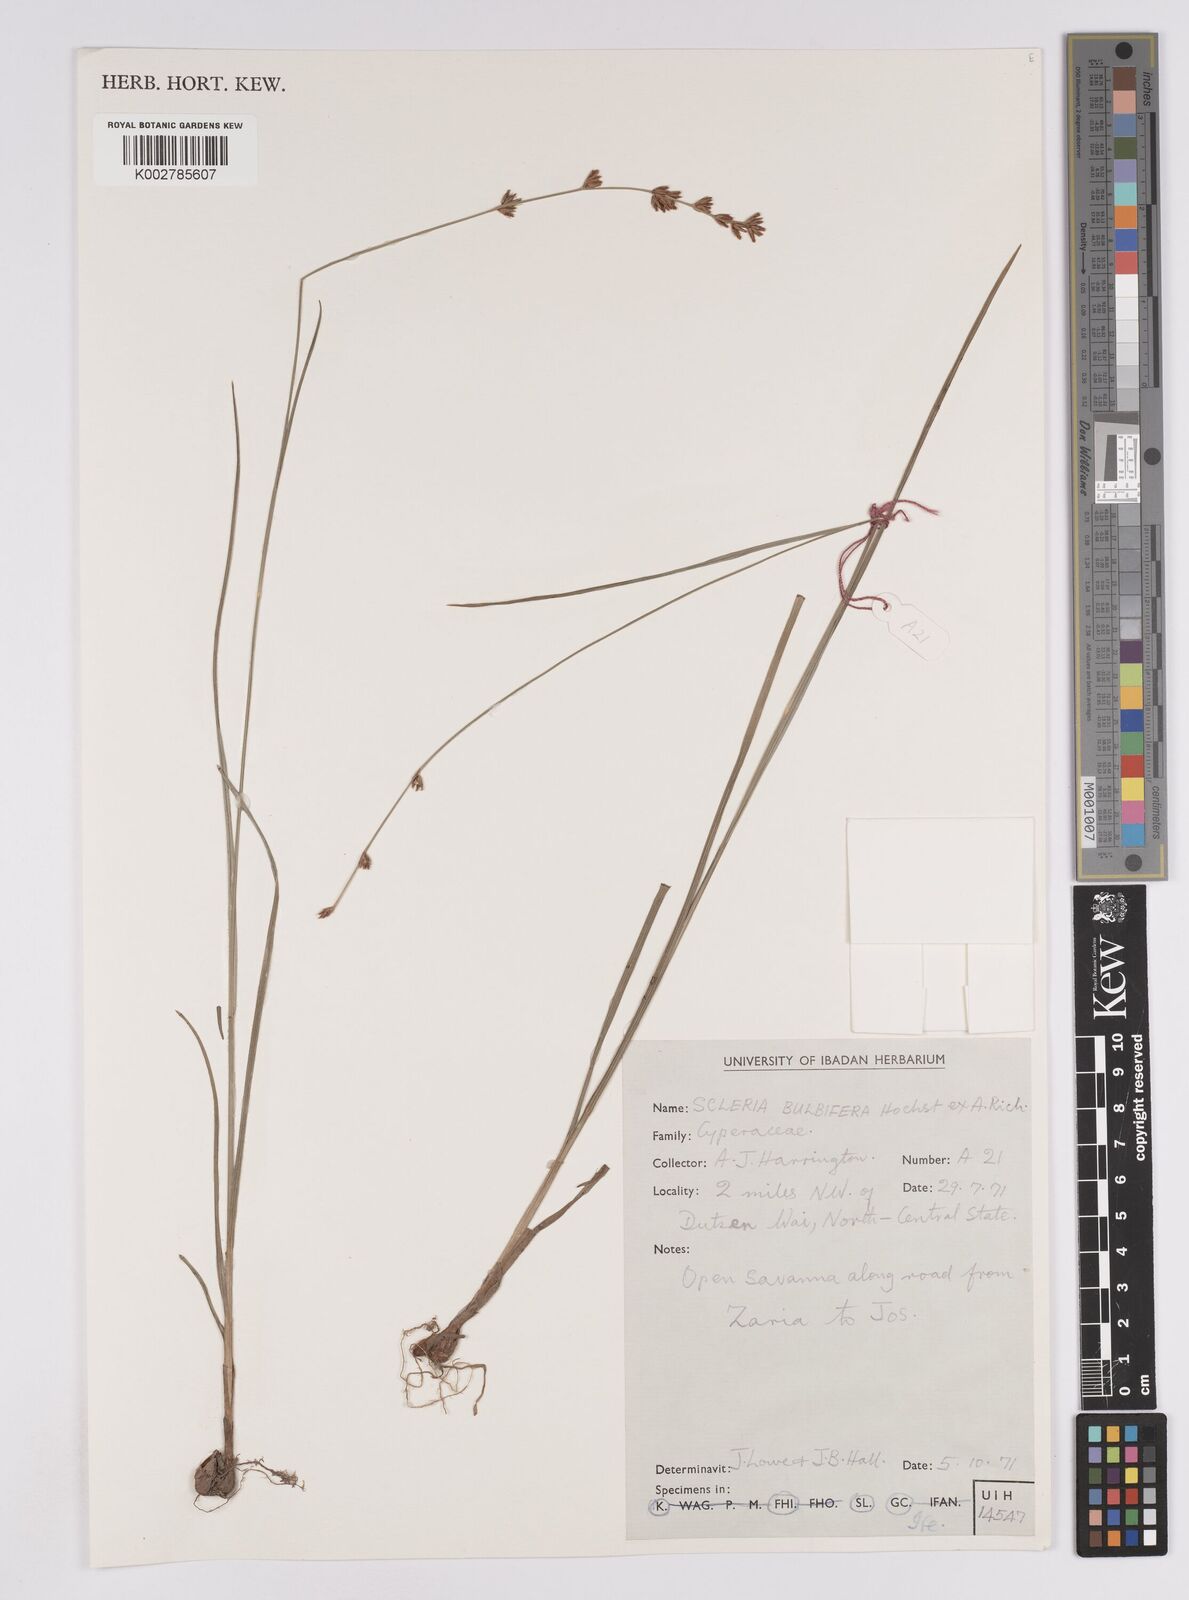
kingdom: Plantae
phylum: Tracheophyta
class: Liliopsida
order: Poales
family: Cyperaceae
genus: Scleria
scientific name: Scleria bulbifera
